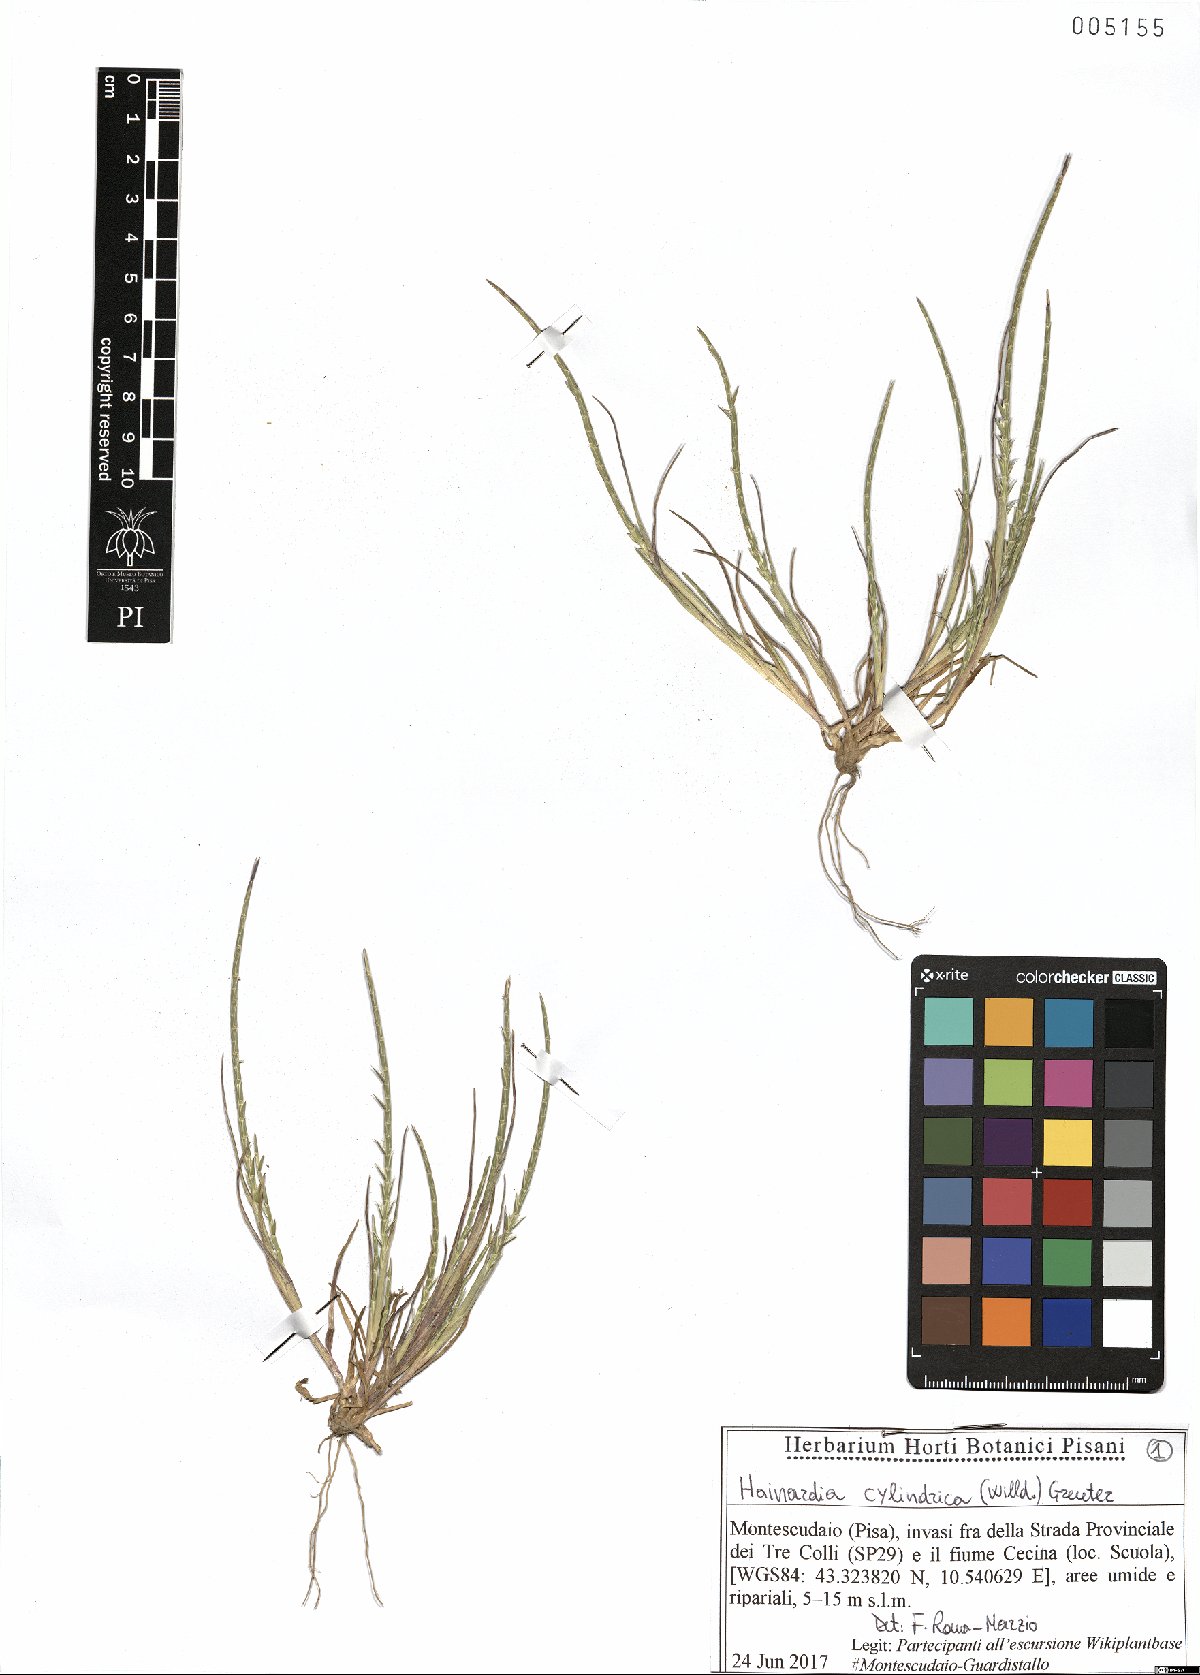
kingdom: Plantae
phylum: Tracheophyta
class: Liliopsida
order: Poales
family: Poaceae
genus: Parapholis
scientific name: Parapholis cylindrica
